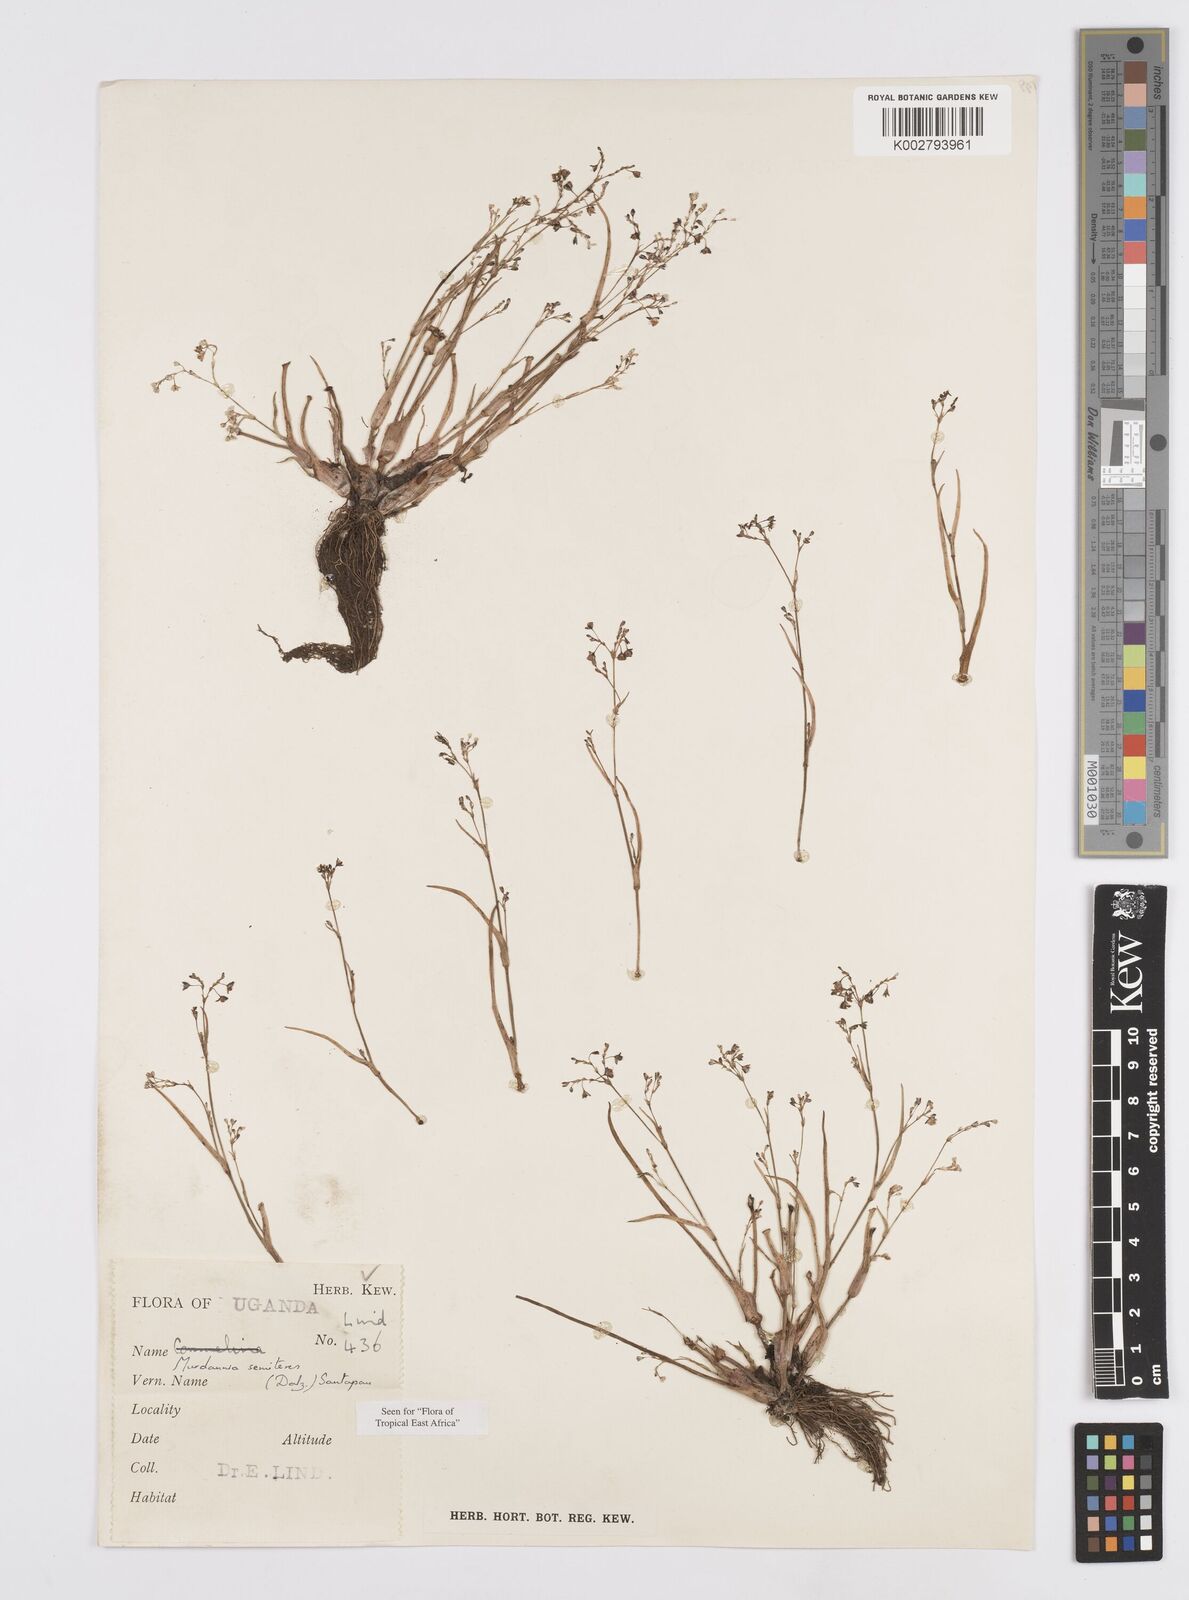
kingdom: Plantae
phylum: Tracheophyta
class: Liliopsida
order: Commelinales
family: Commelinaceae
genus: Murdannia
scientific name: Murdannia semiteres
